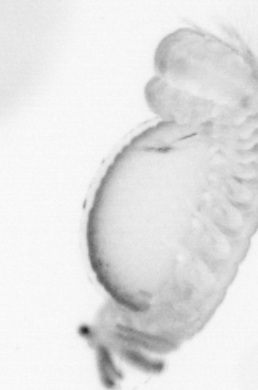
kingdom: Animalia
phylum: Annelida
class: Polychaeta
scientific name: Polychaeta
